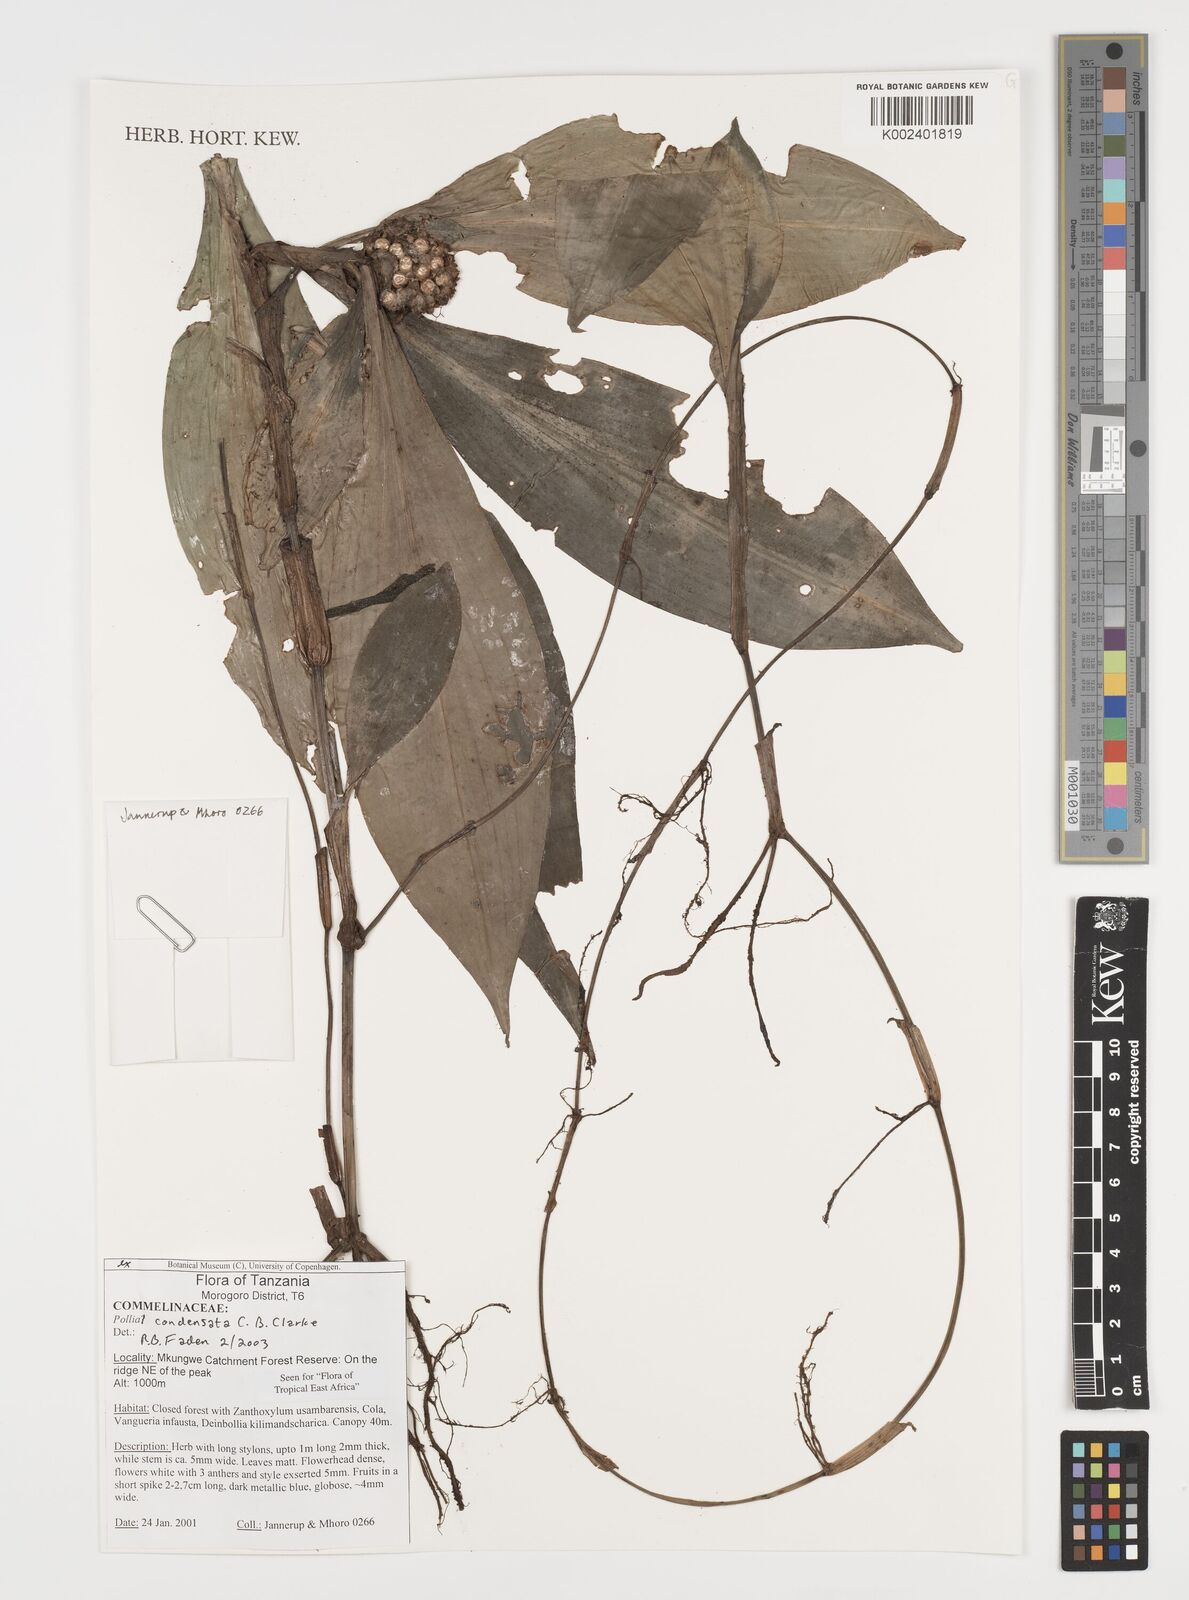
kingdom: Plantae
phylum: Tracheophyta
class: Liliopsida
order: Commelinales
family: Commelinaceae
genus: Pollia
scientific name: Pollia condensata
